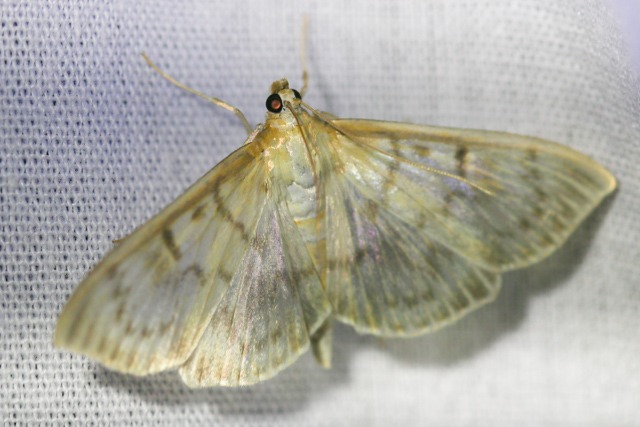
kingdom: Animalia
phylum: Arthropoda
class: Insecta
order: Lepidoptera
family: Crambidae
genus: Patania
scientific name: Patania ruralis
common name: Perlemorshalvmøl
